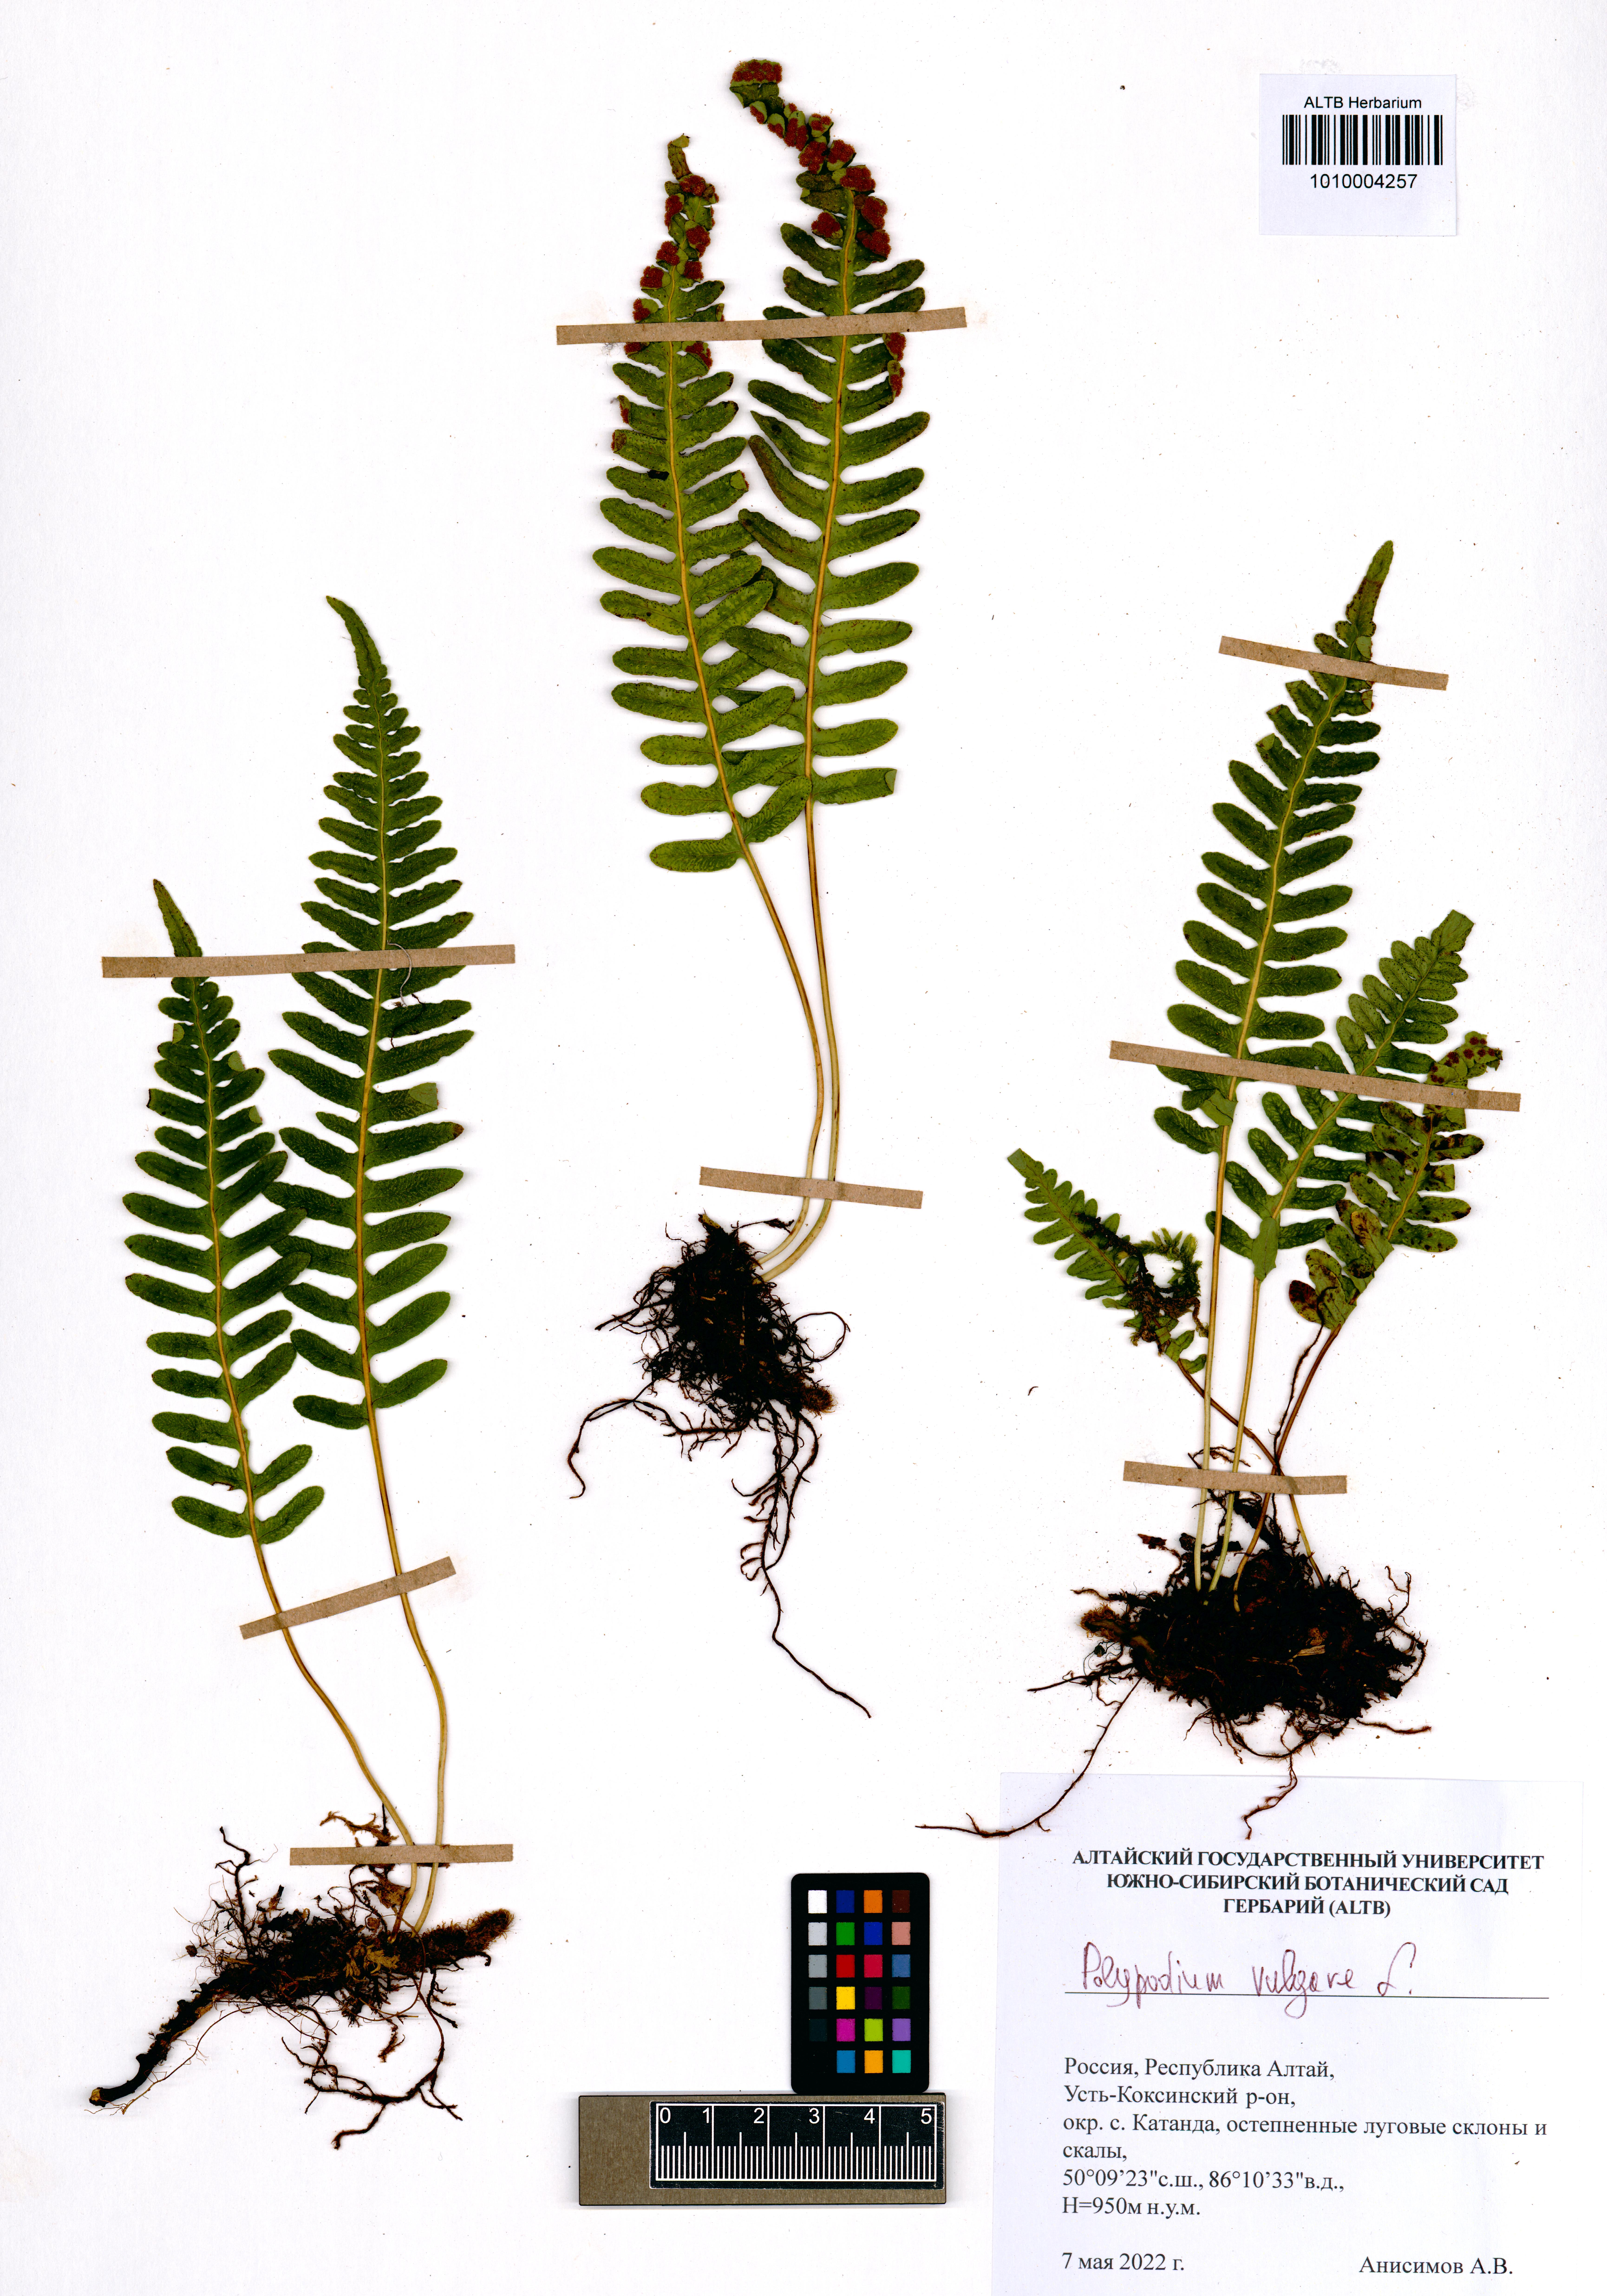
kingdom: Plantae
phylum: Tracheophyta
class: Polypodiopsida
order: Polypodiales
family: Polypodiaceae
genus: Polypodium
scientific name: Polypodium vulgare
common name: Common polypody
